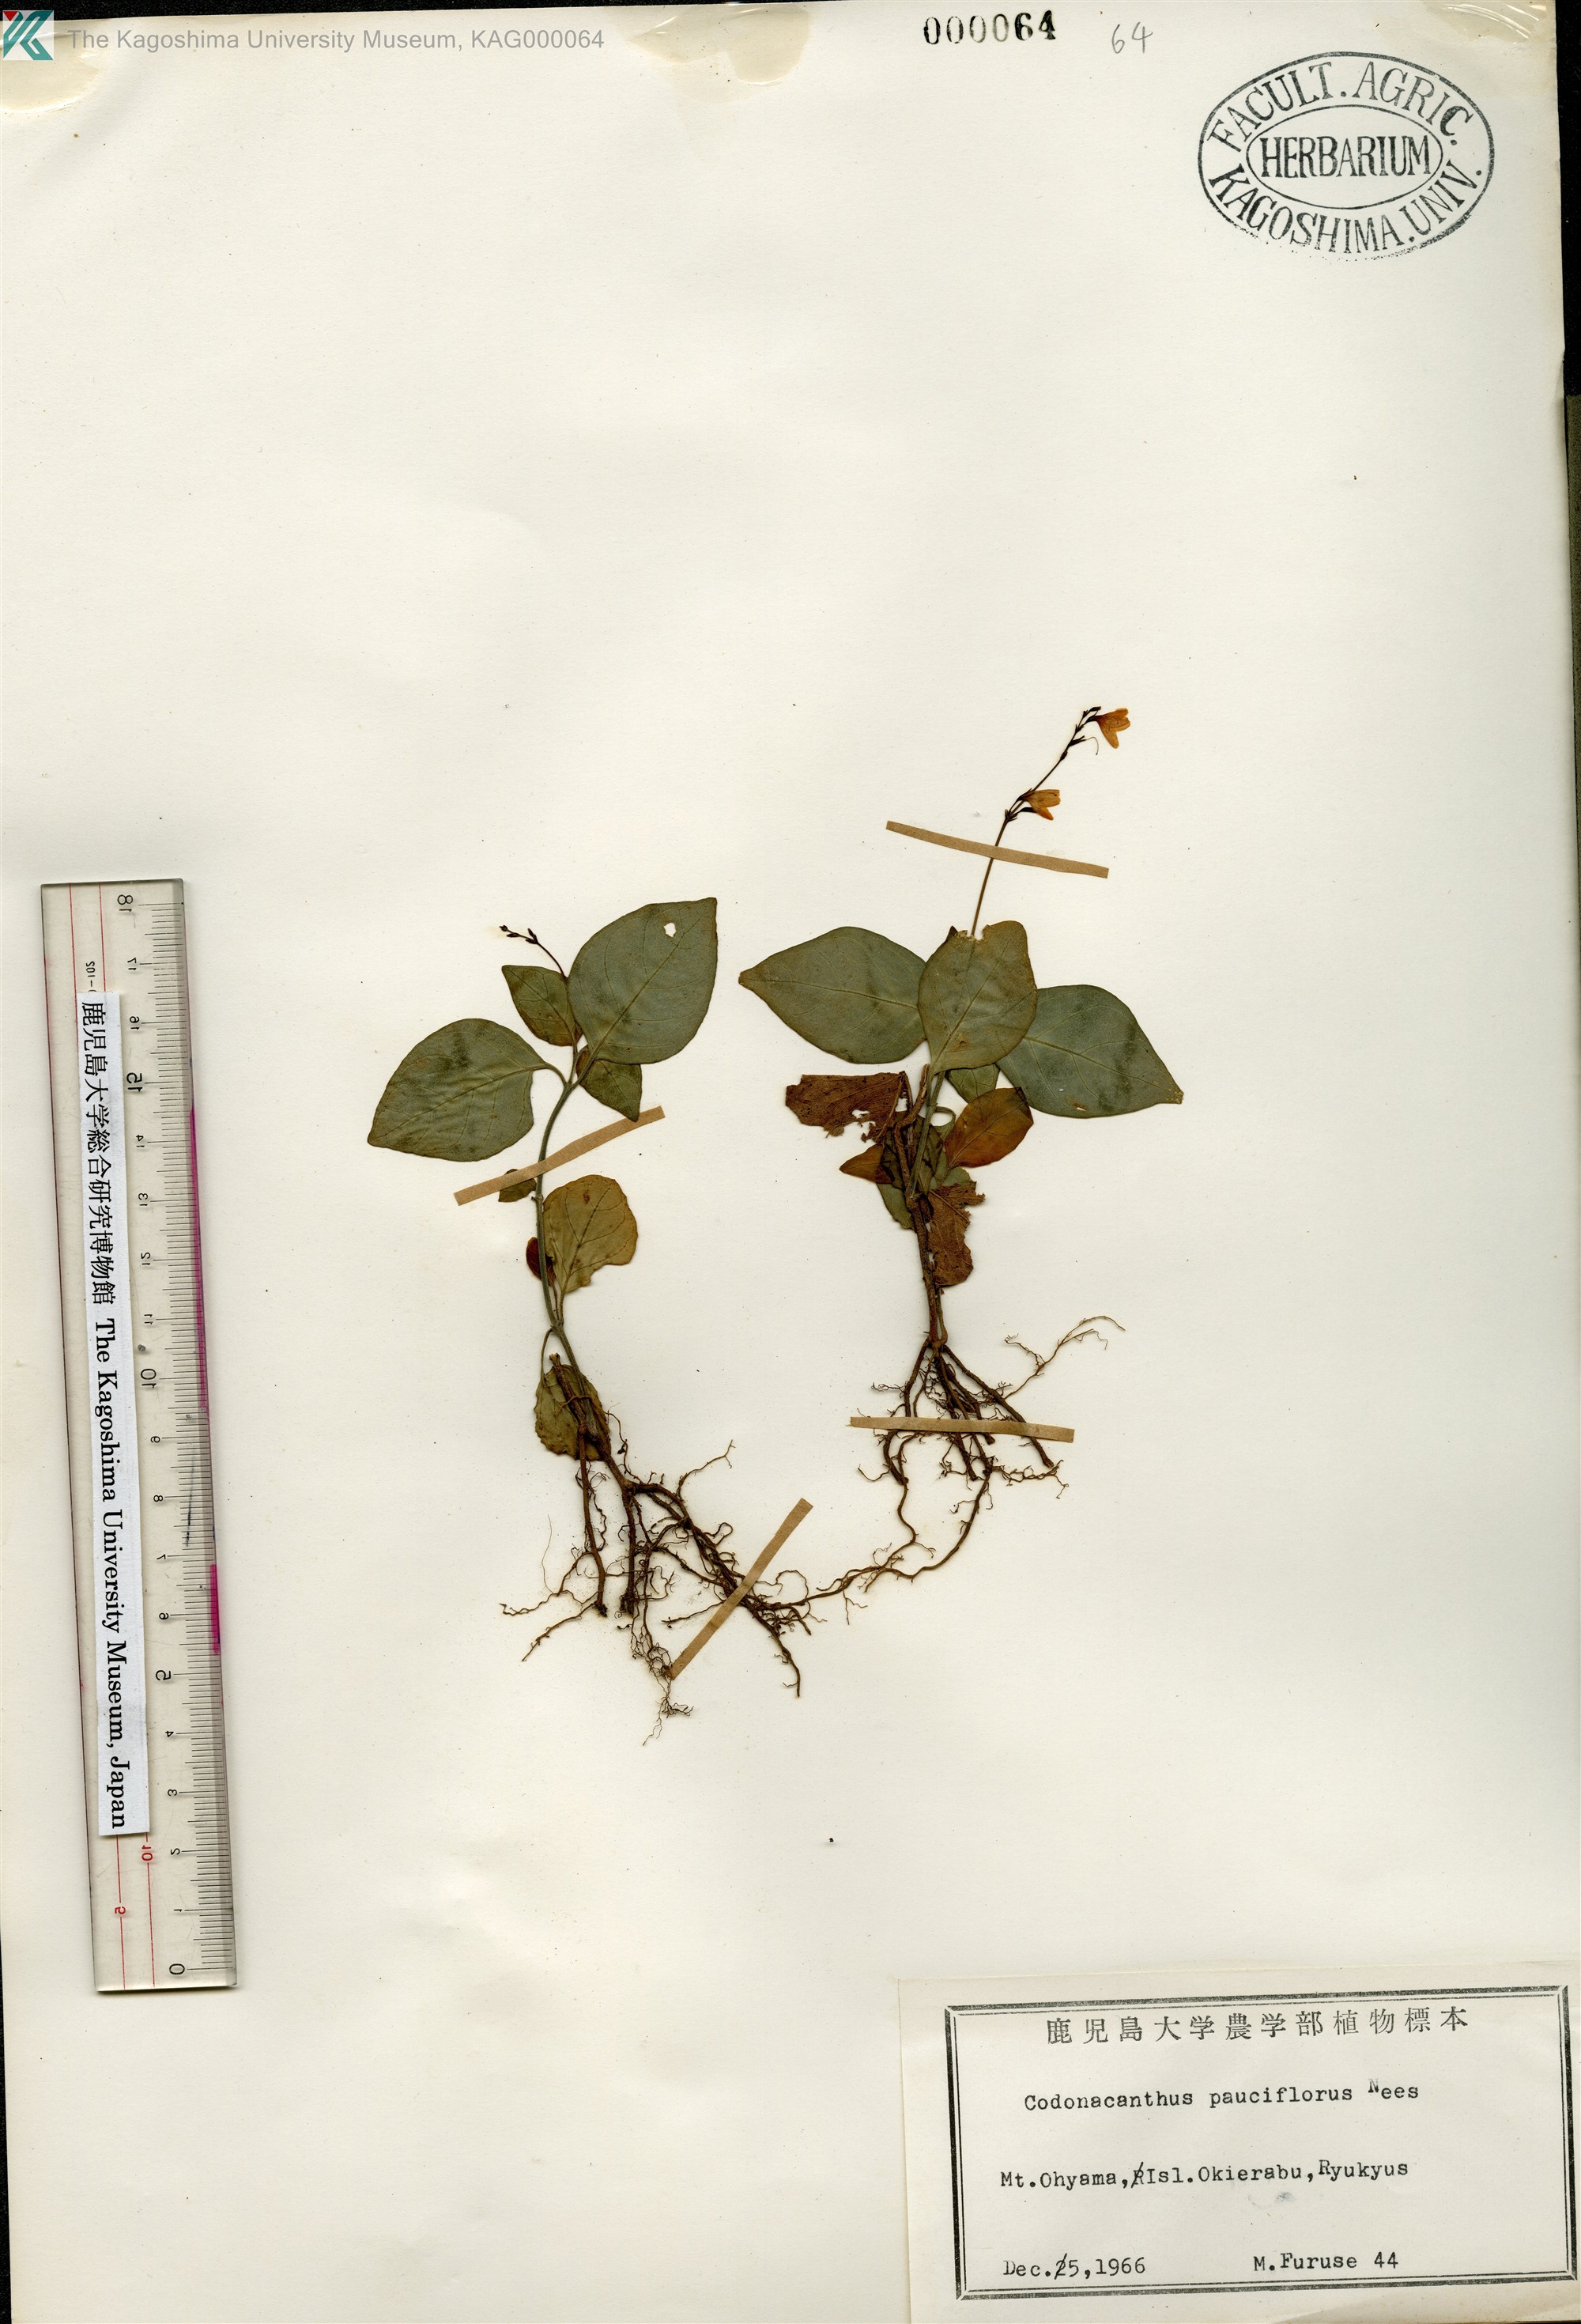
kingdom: Plantae
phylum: Tracheophyta
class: Magnoliopsida
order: Lamiales
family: Acanthaceae
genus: Codonacanthus
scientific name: Codonacanthus pauciflorus
